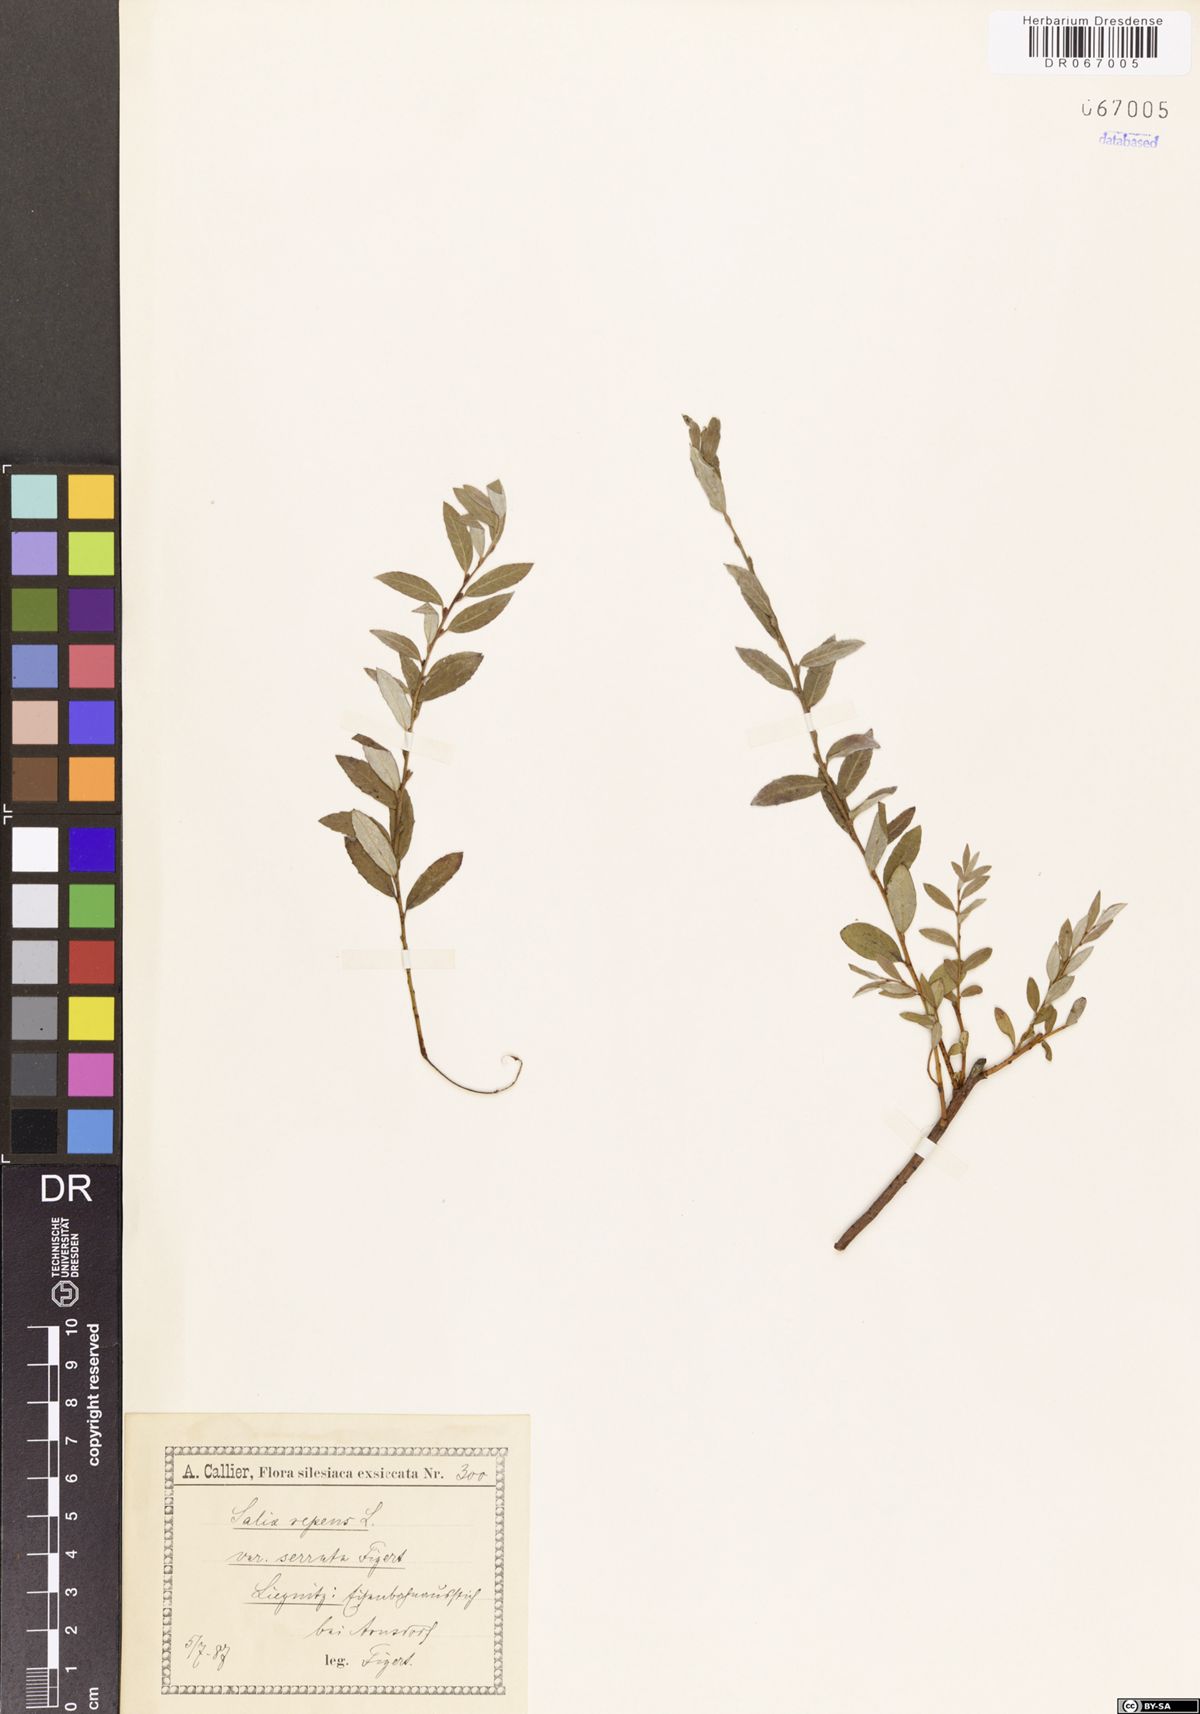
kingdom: Plantae
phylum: Tracheophyta
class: Magnoliopsida
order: Malpighiales
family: Salicaceae
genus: Salix
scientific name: Salix repens
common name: Creeping willow
